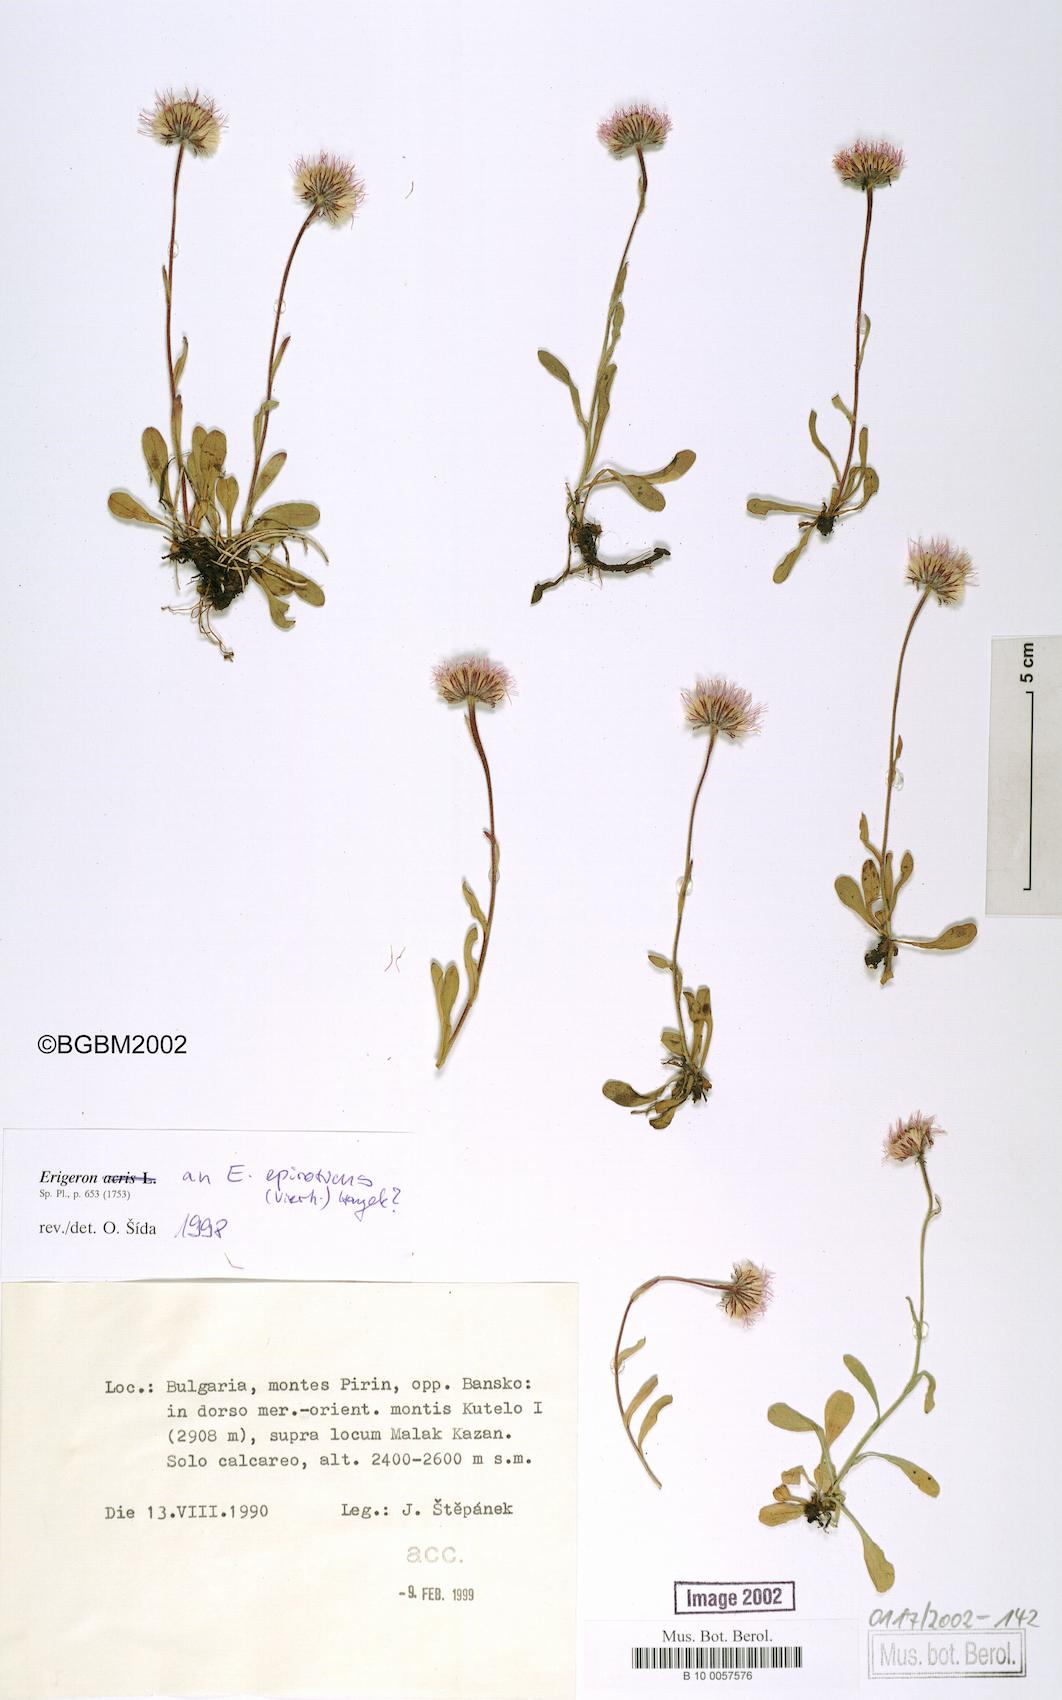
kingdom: Plantae
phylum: Tracheophyta
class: Magnoliopsida
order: Asterales
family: Asteraceae
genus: Erigeron
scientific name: Erigeron epiroticus
